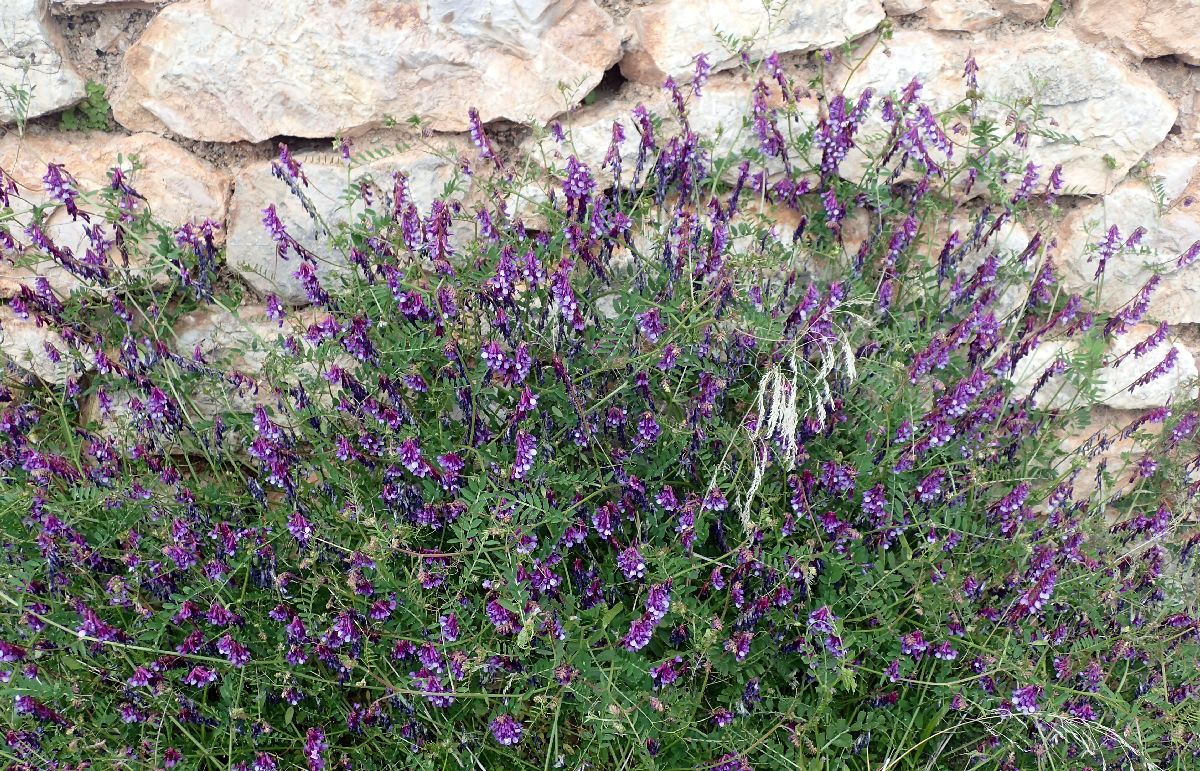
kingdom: Plantae
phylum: Tracheophyta
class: Magnoliopsida
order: Fabales
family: Fabaceae
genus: Vicia
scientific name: Vicia tenuifolia
